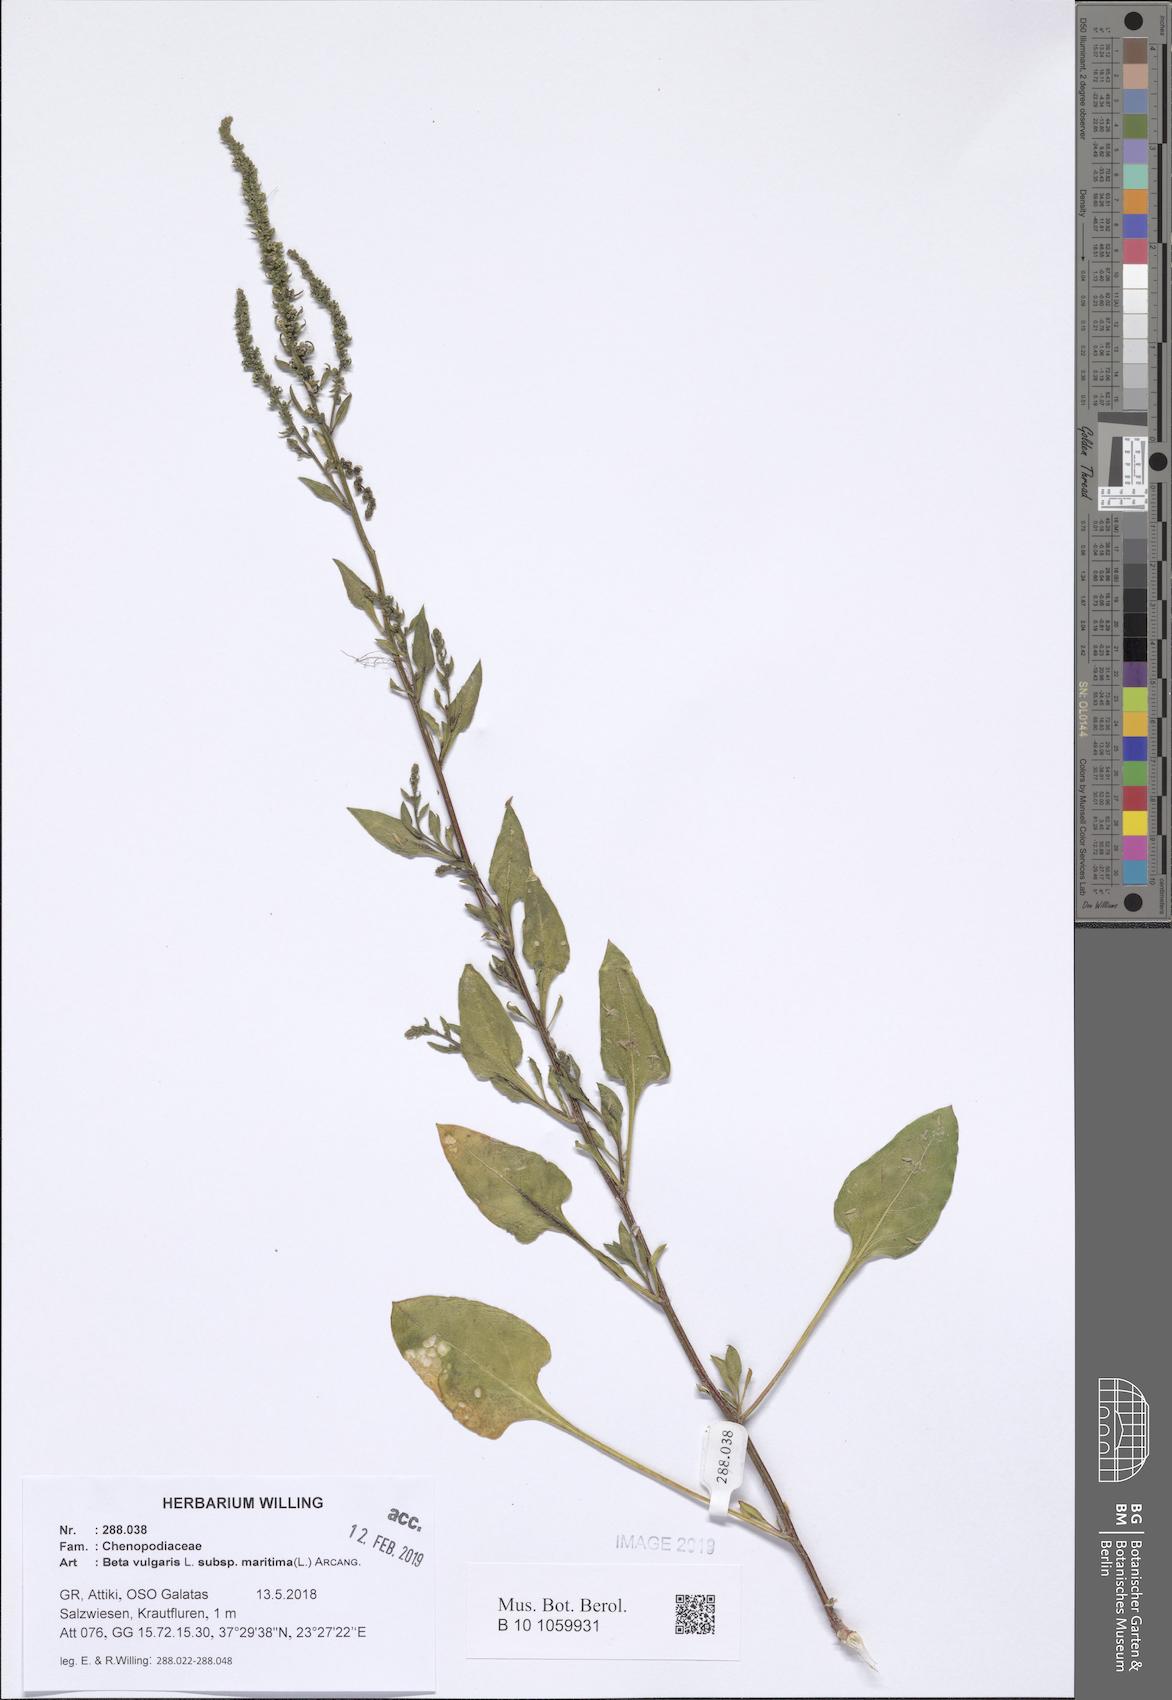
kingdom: Plantae
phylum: Tracheophyta
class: Magnoliopsida
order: Caryophyllales
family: Amaranthaceae
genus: Beta
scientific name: Beta maritima
